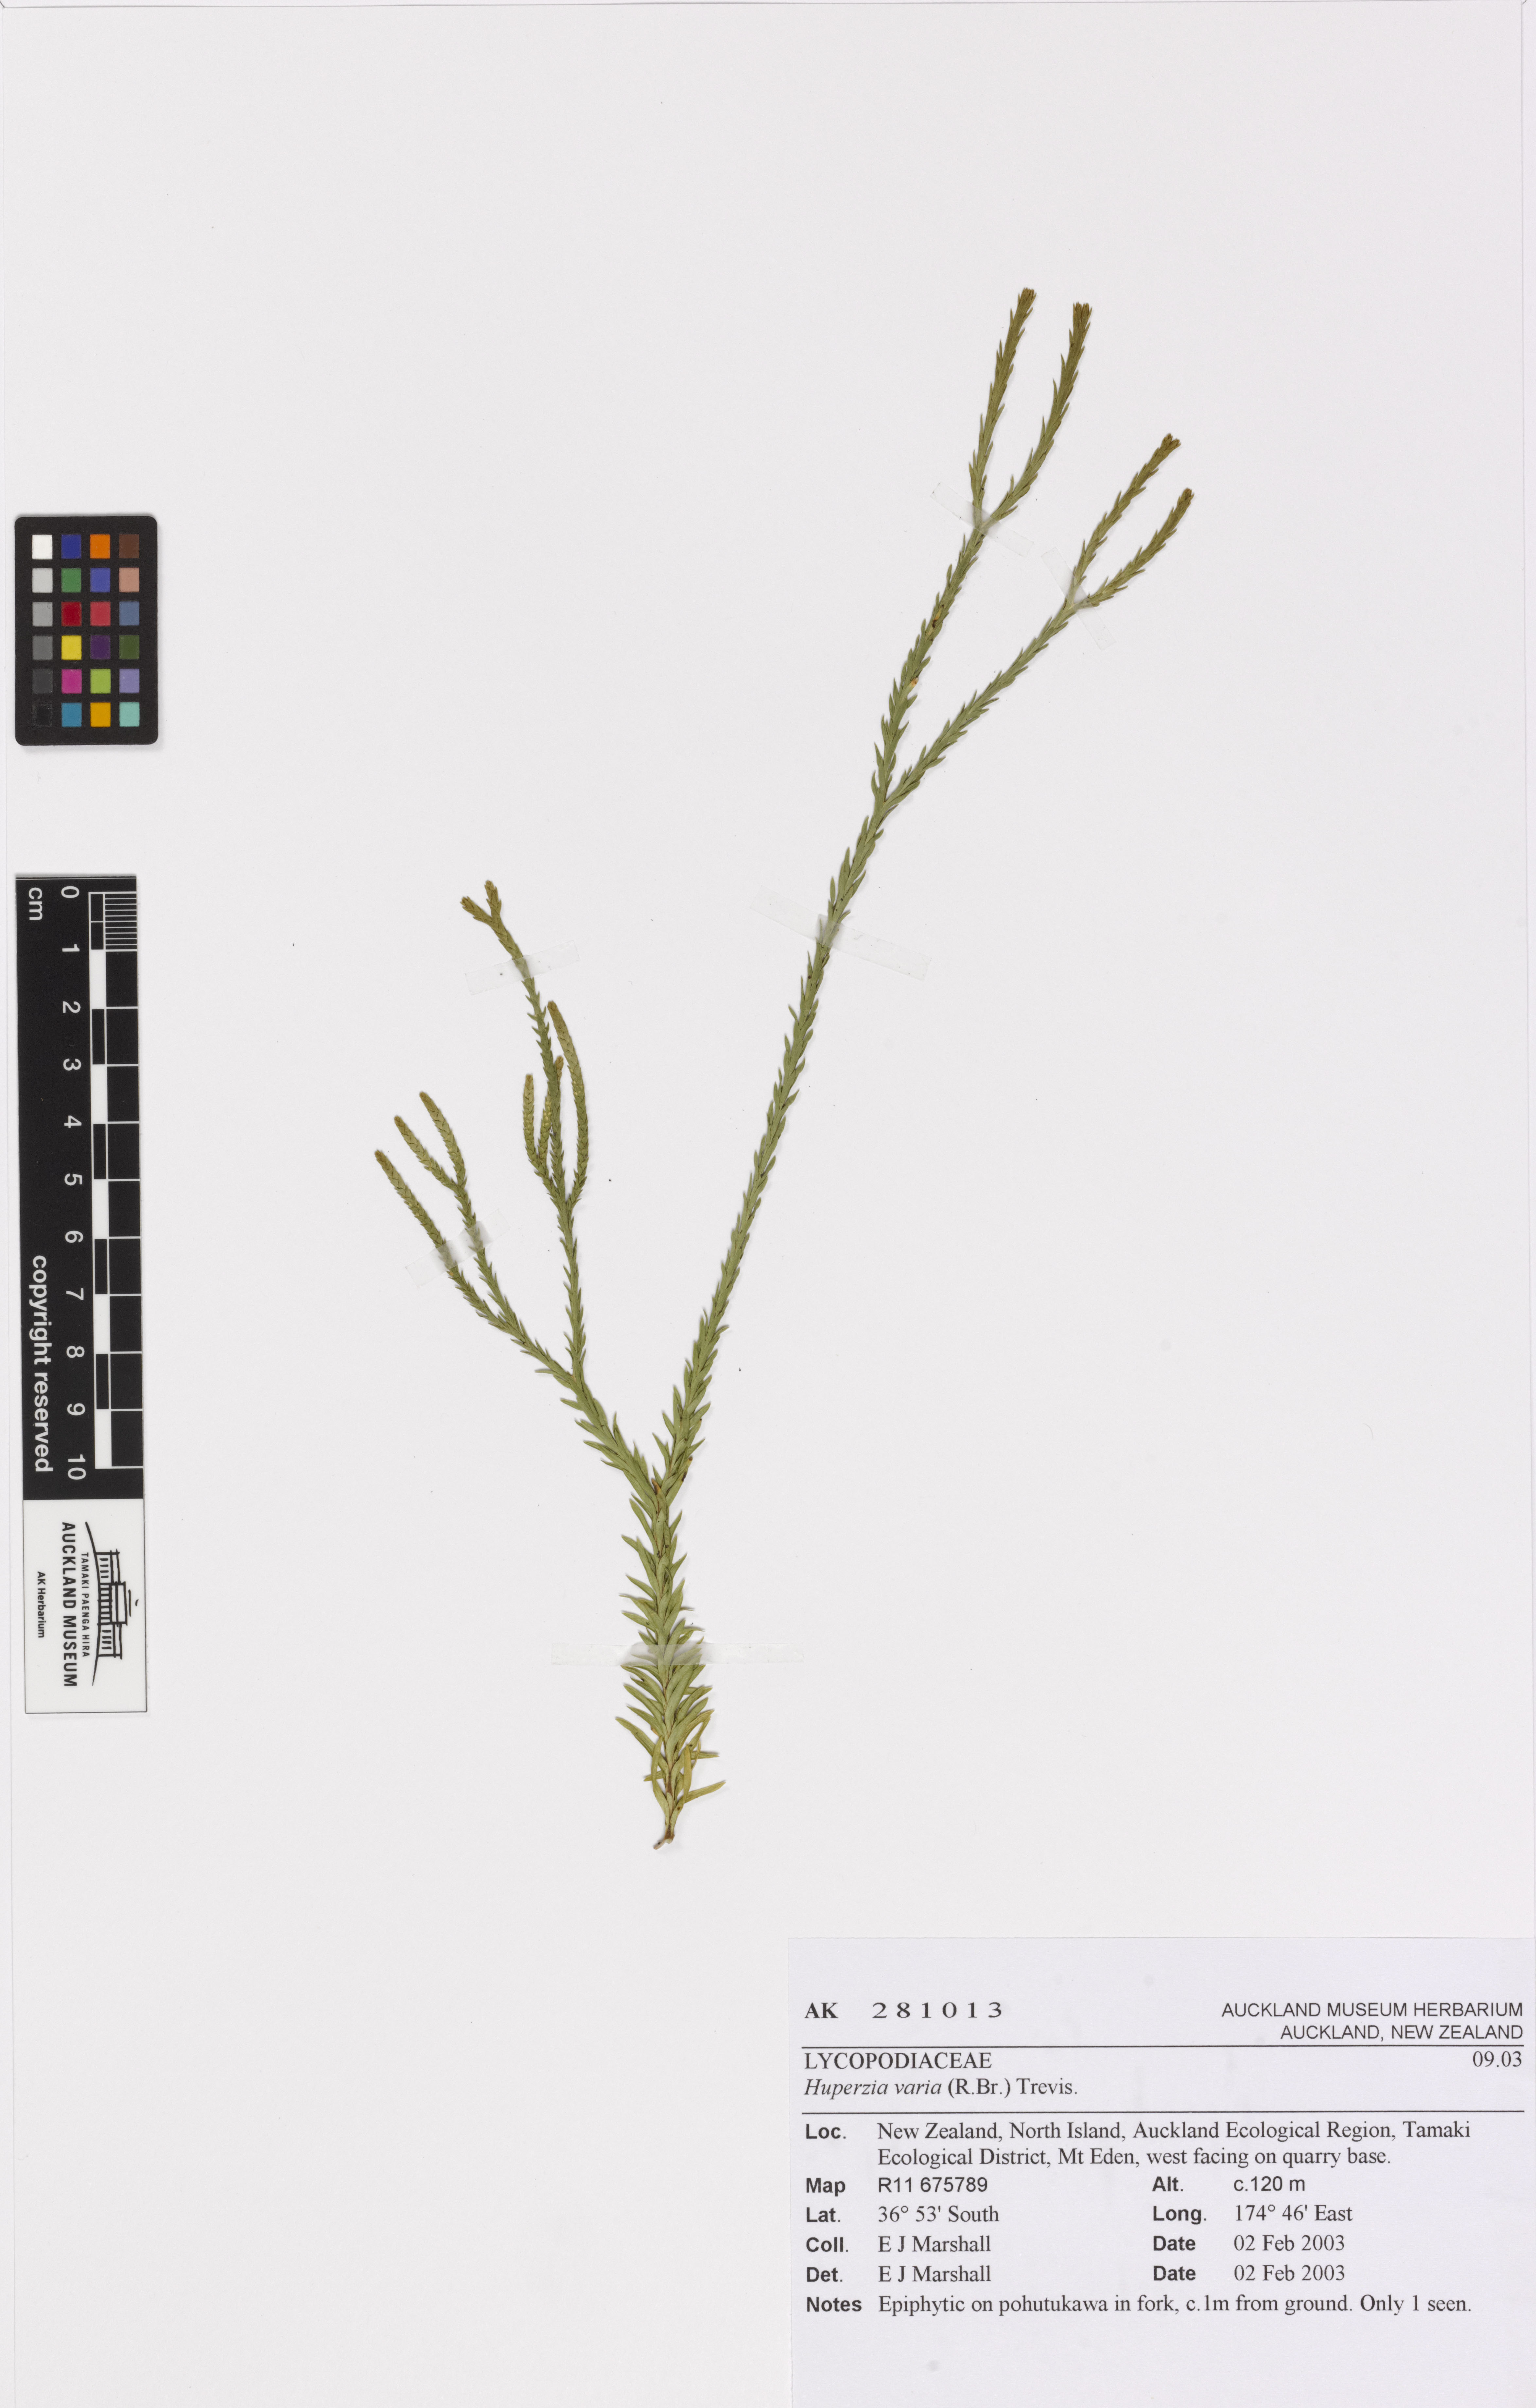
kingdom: Plantae
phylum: Tracheophyta
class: Lycopodiopsida
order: Lycopodiales
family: Lycopodiaceae
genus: Phlegmariurus
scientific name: Phlegmariurus billardierei
